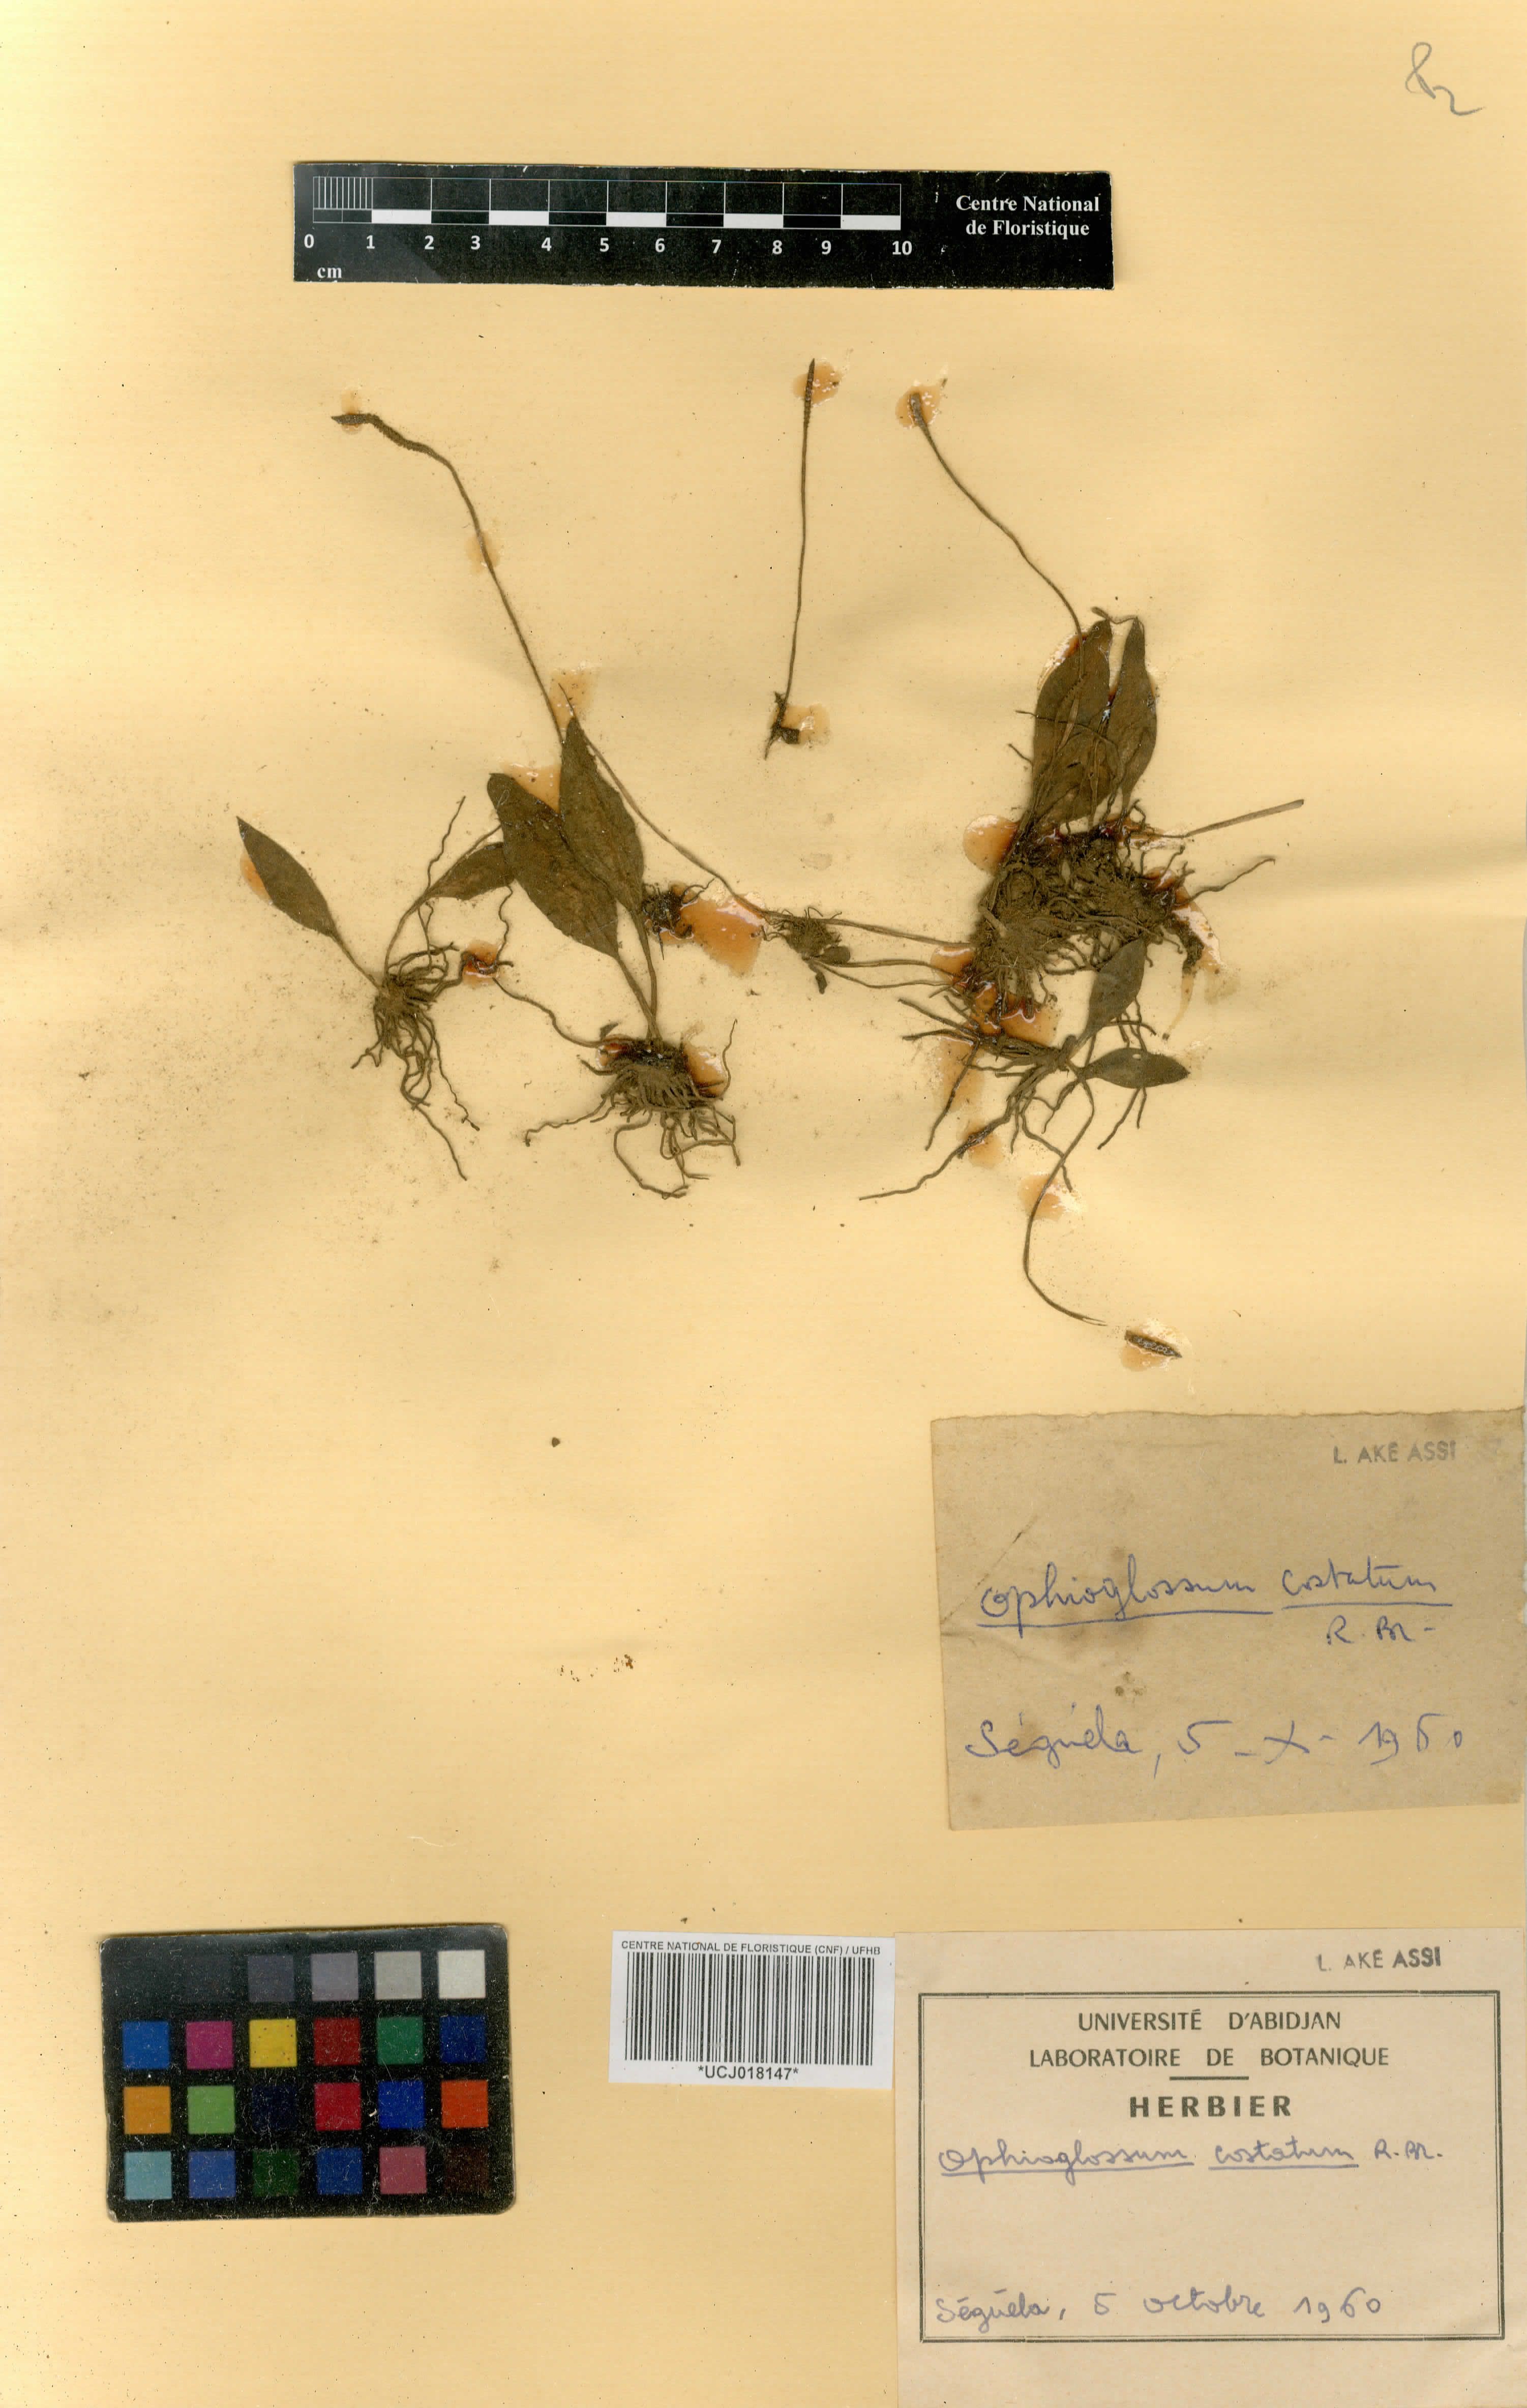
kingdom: Plantae
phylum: Tracheophyta
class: Polypodiopsida
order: Ophioglossales
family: Ophioglossaceae
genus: Ophioglossum
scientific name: Ophioglossum costatum
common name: Large adder's tongue
